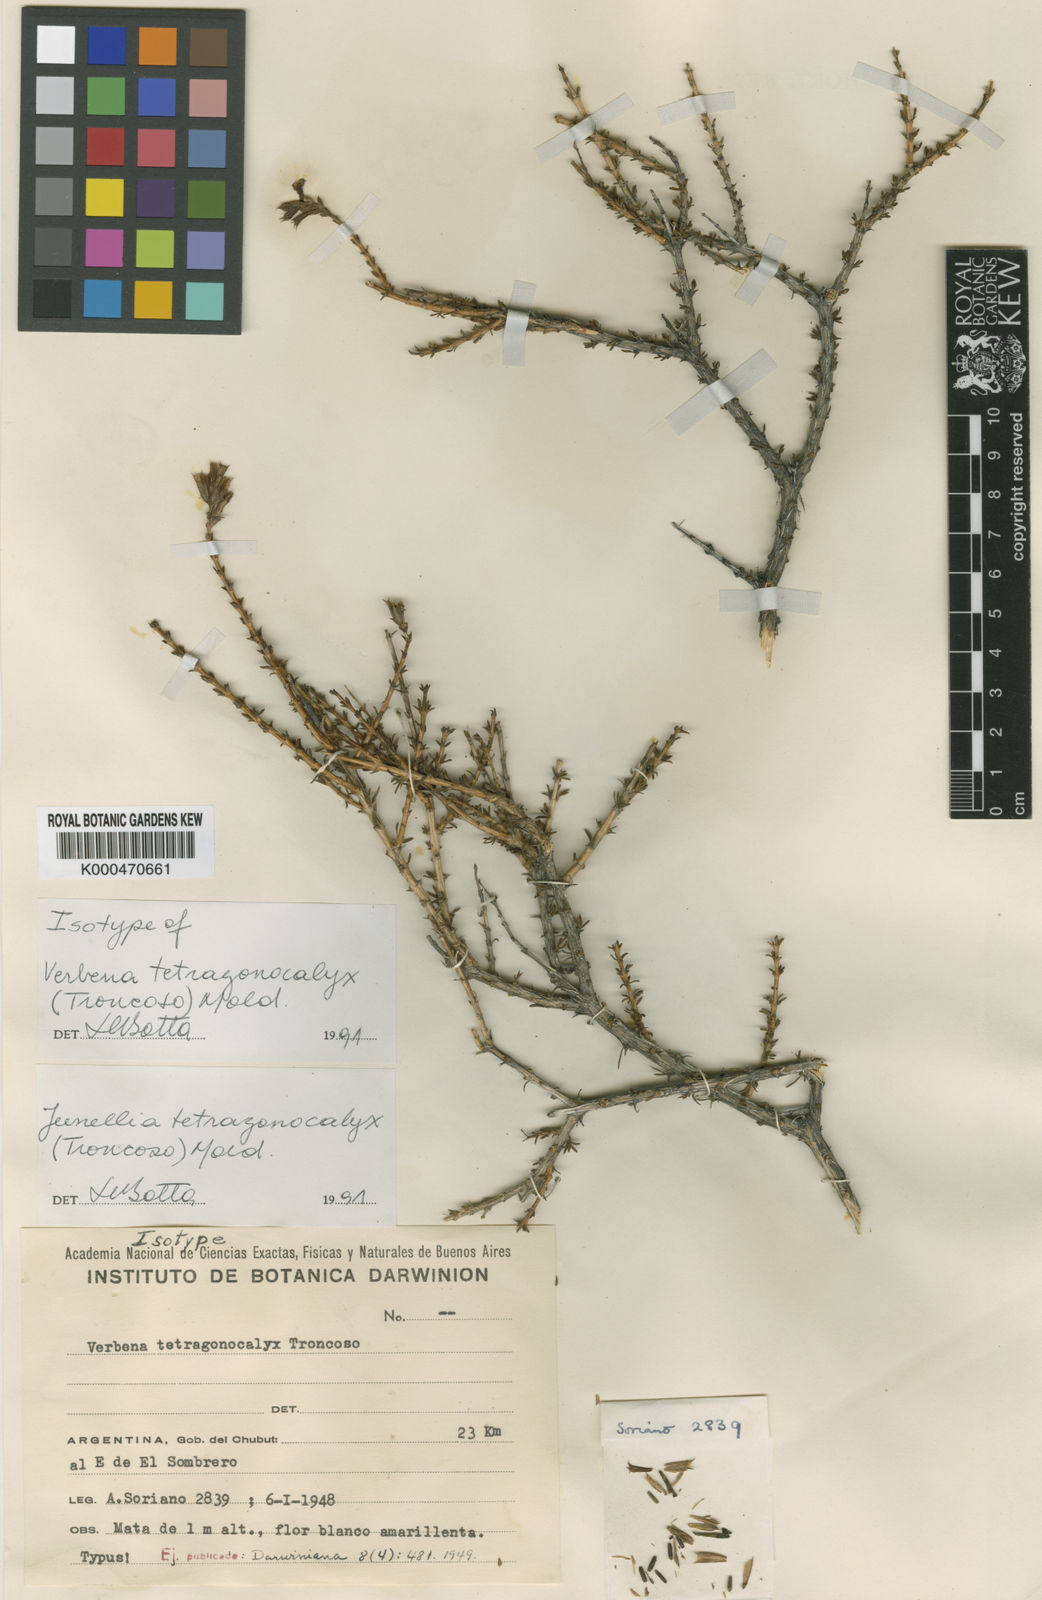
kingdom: Plantae
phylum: Tracheophyta
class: Magnoliopsida
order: Lamiales
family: Verbenaceae
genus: Mulguraea
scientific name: Mulguraea tetragonocalyx
